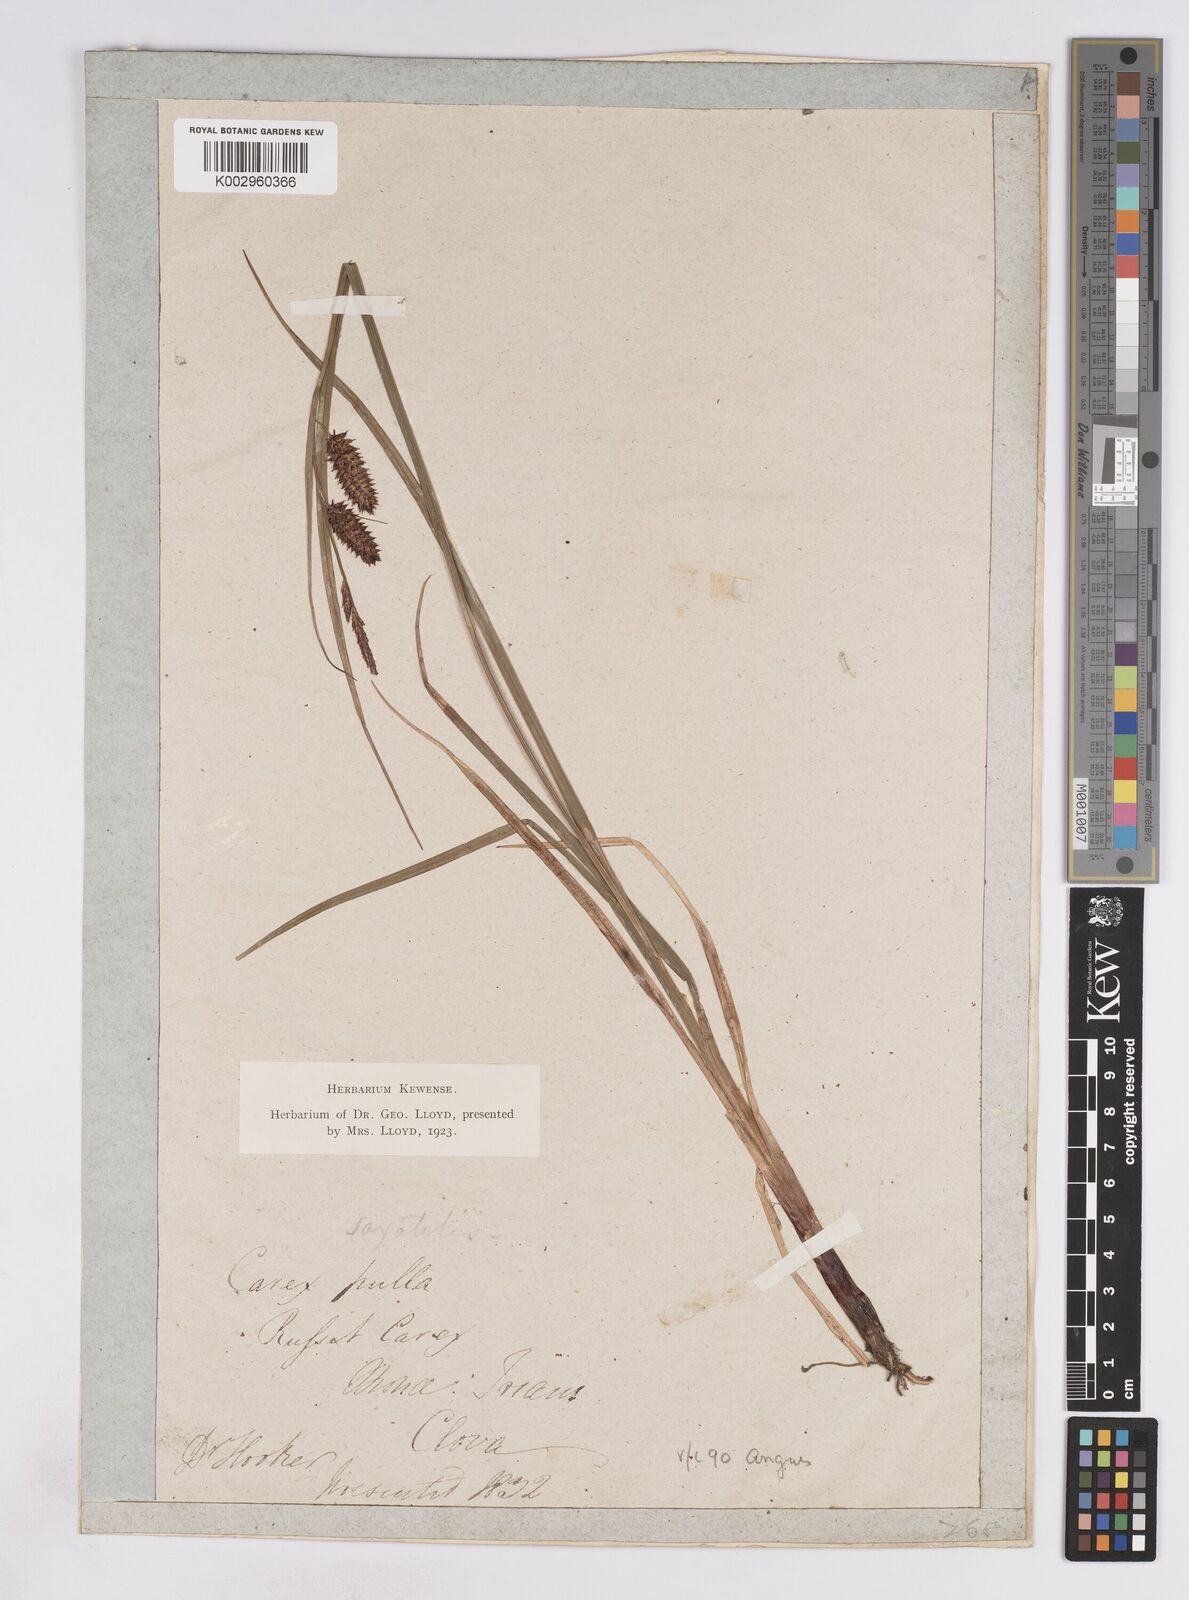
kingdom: Plantae
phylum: Tracheophyta
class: Liliopsida
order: Poales
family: Cyperaceae
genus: Carex
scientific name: Carex vesicaria
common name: Bladder-sedge
